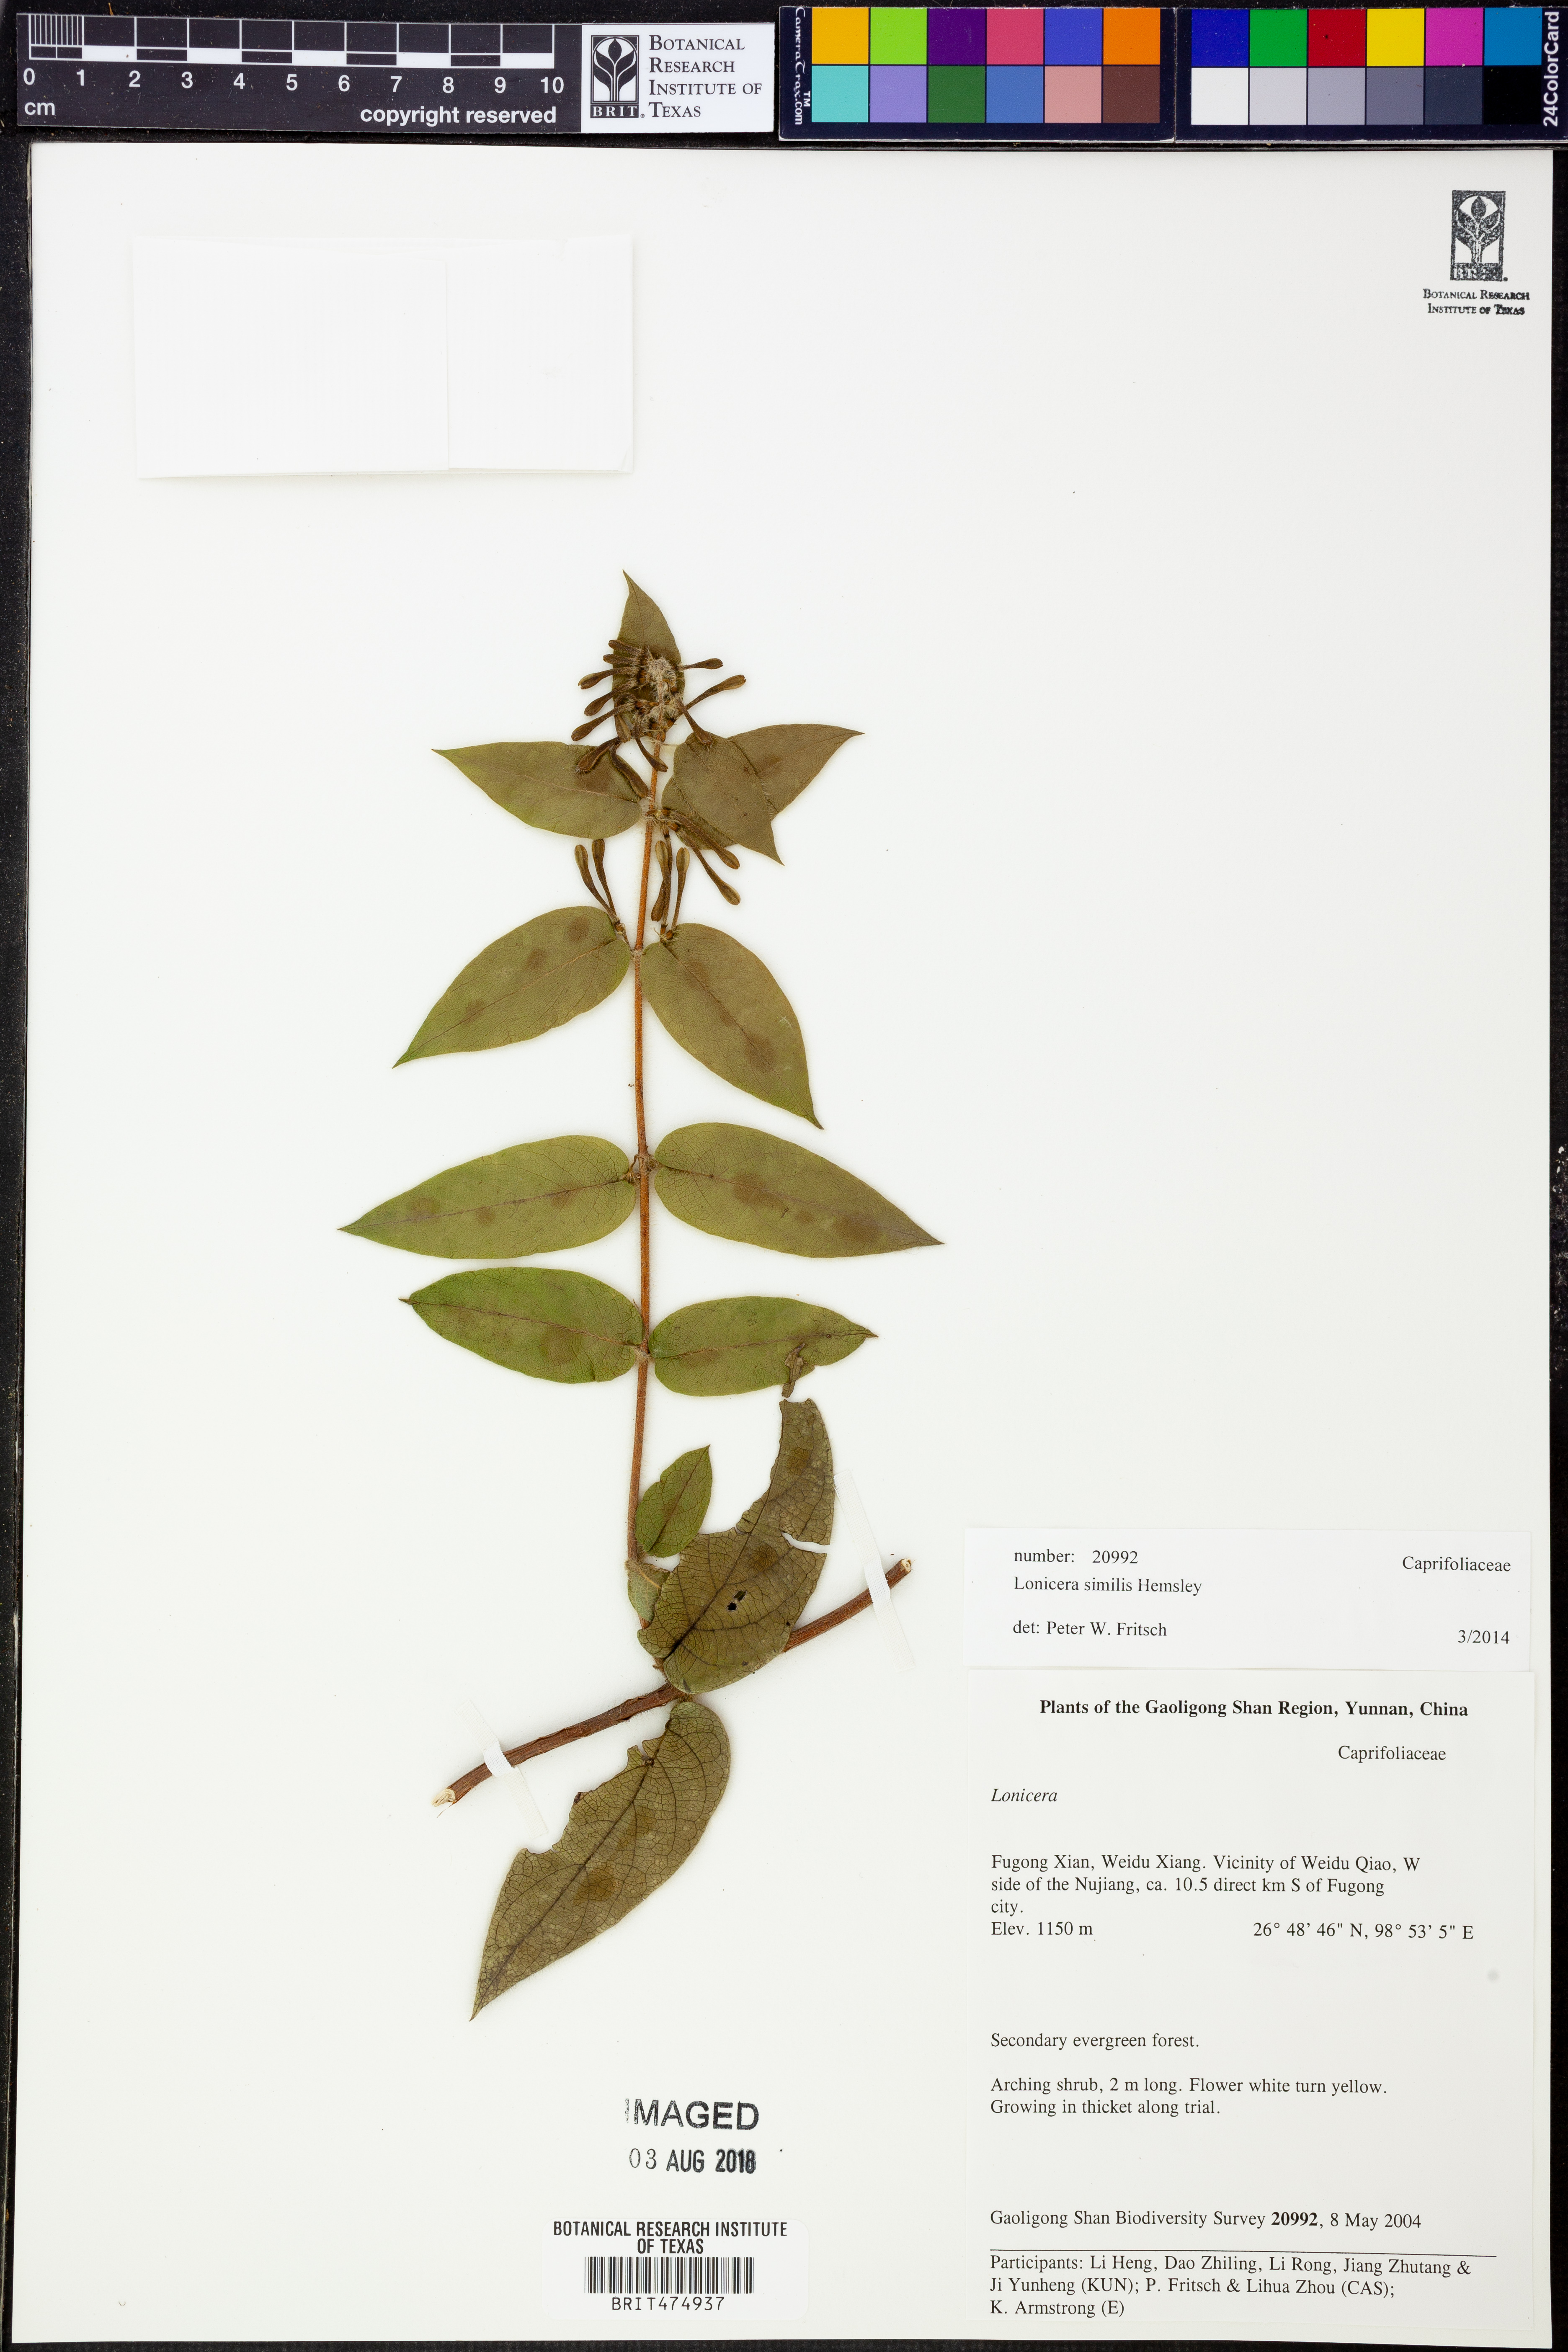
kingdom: Plantae
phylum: Tracheophyta
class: Magnoliopsida
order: Dipsacales
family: Caprifoliaceae
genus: Lonicera
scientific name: Lonicera similis
